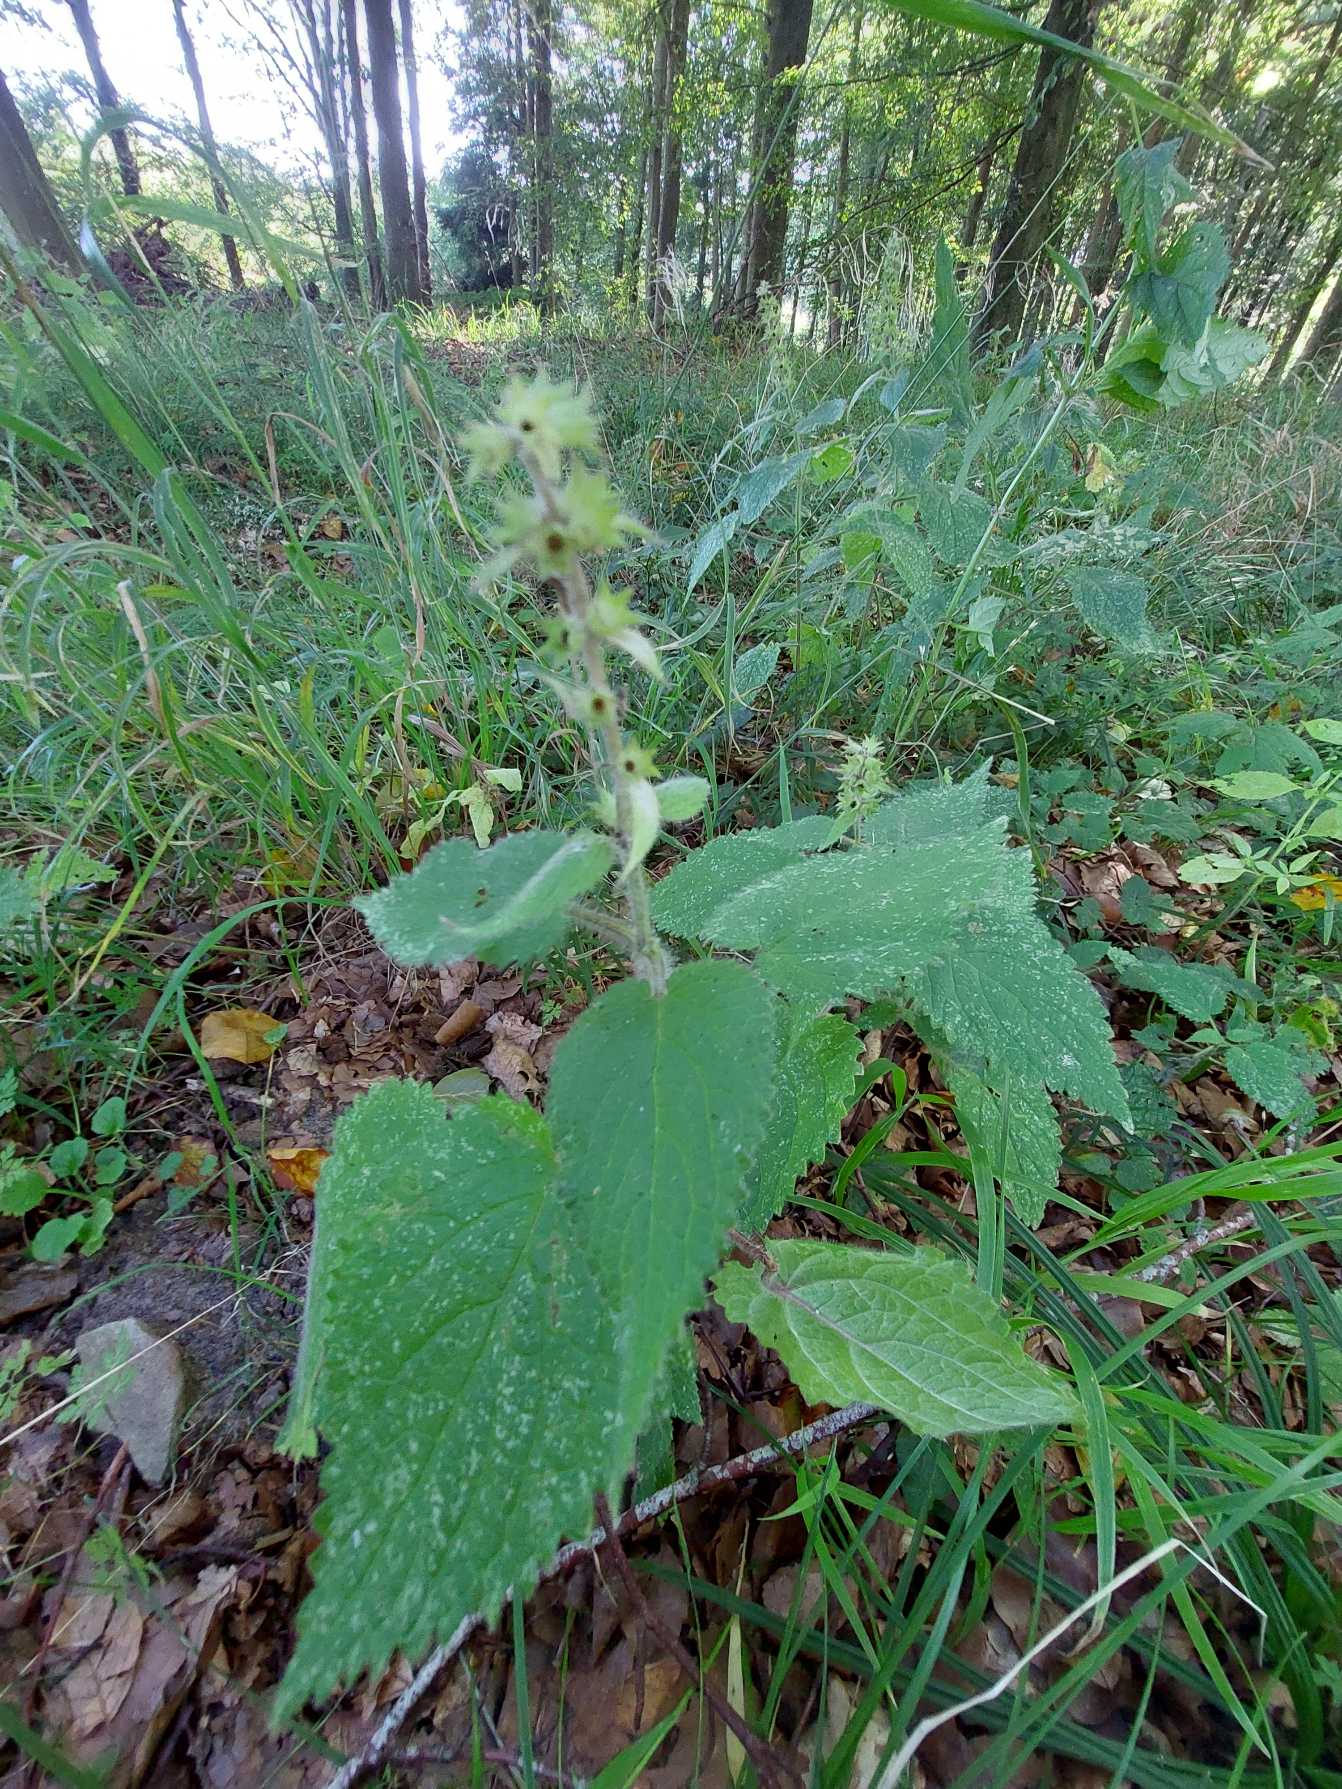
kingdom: Plantae
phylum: Tracheophyta
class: Magnoliopsida
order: Lamiales
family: Lamiaceae
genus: Stachys
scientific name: Stachys sylvatica
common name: Skov-galtetand
